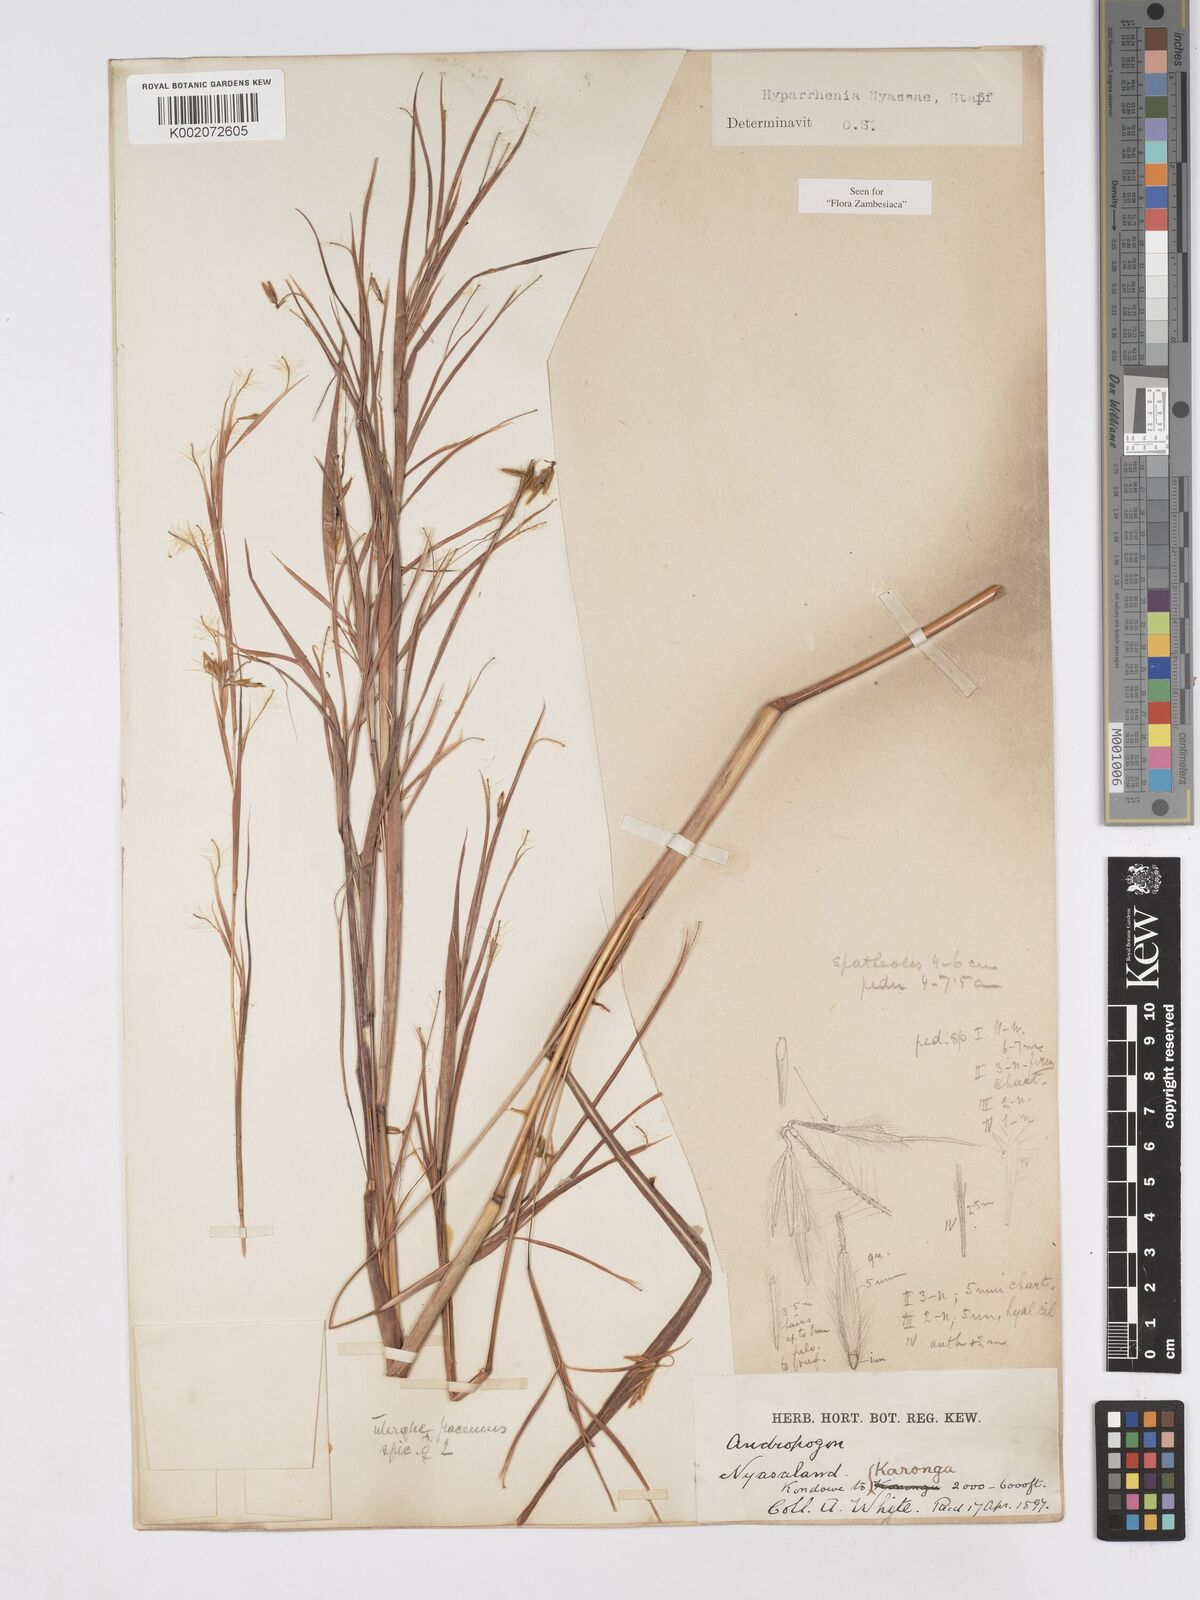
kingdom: Plantae
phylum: Tracheophyta
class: Liliopsida
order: Poales
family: Poaceae
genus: Hyparrhenia
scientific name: Hyparrhenia nyassae
